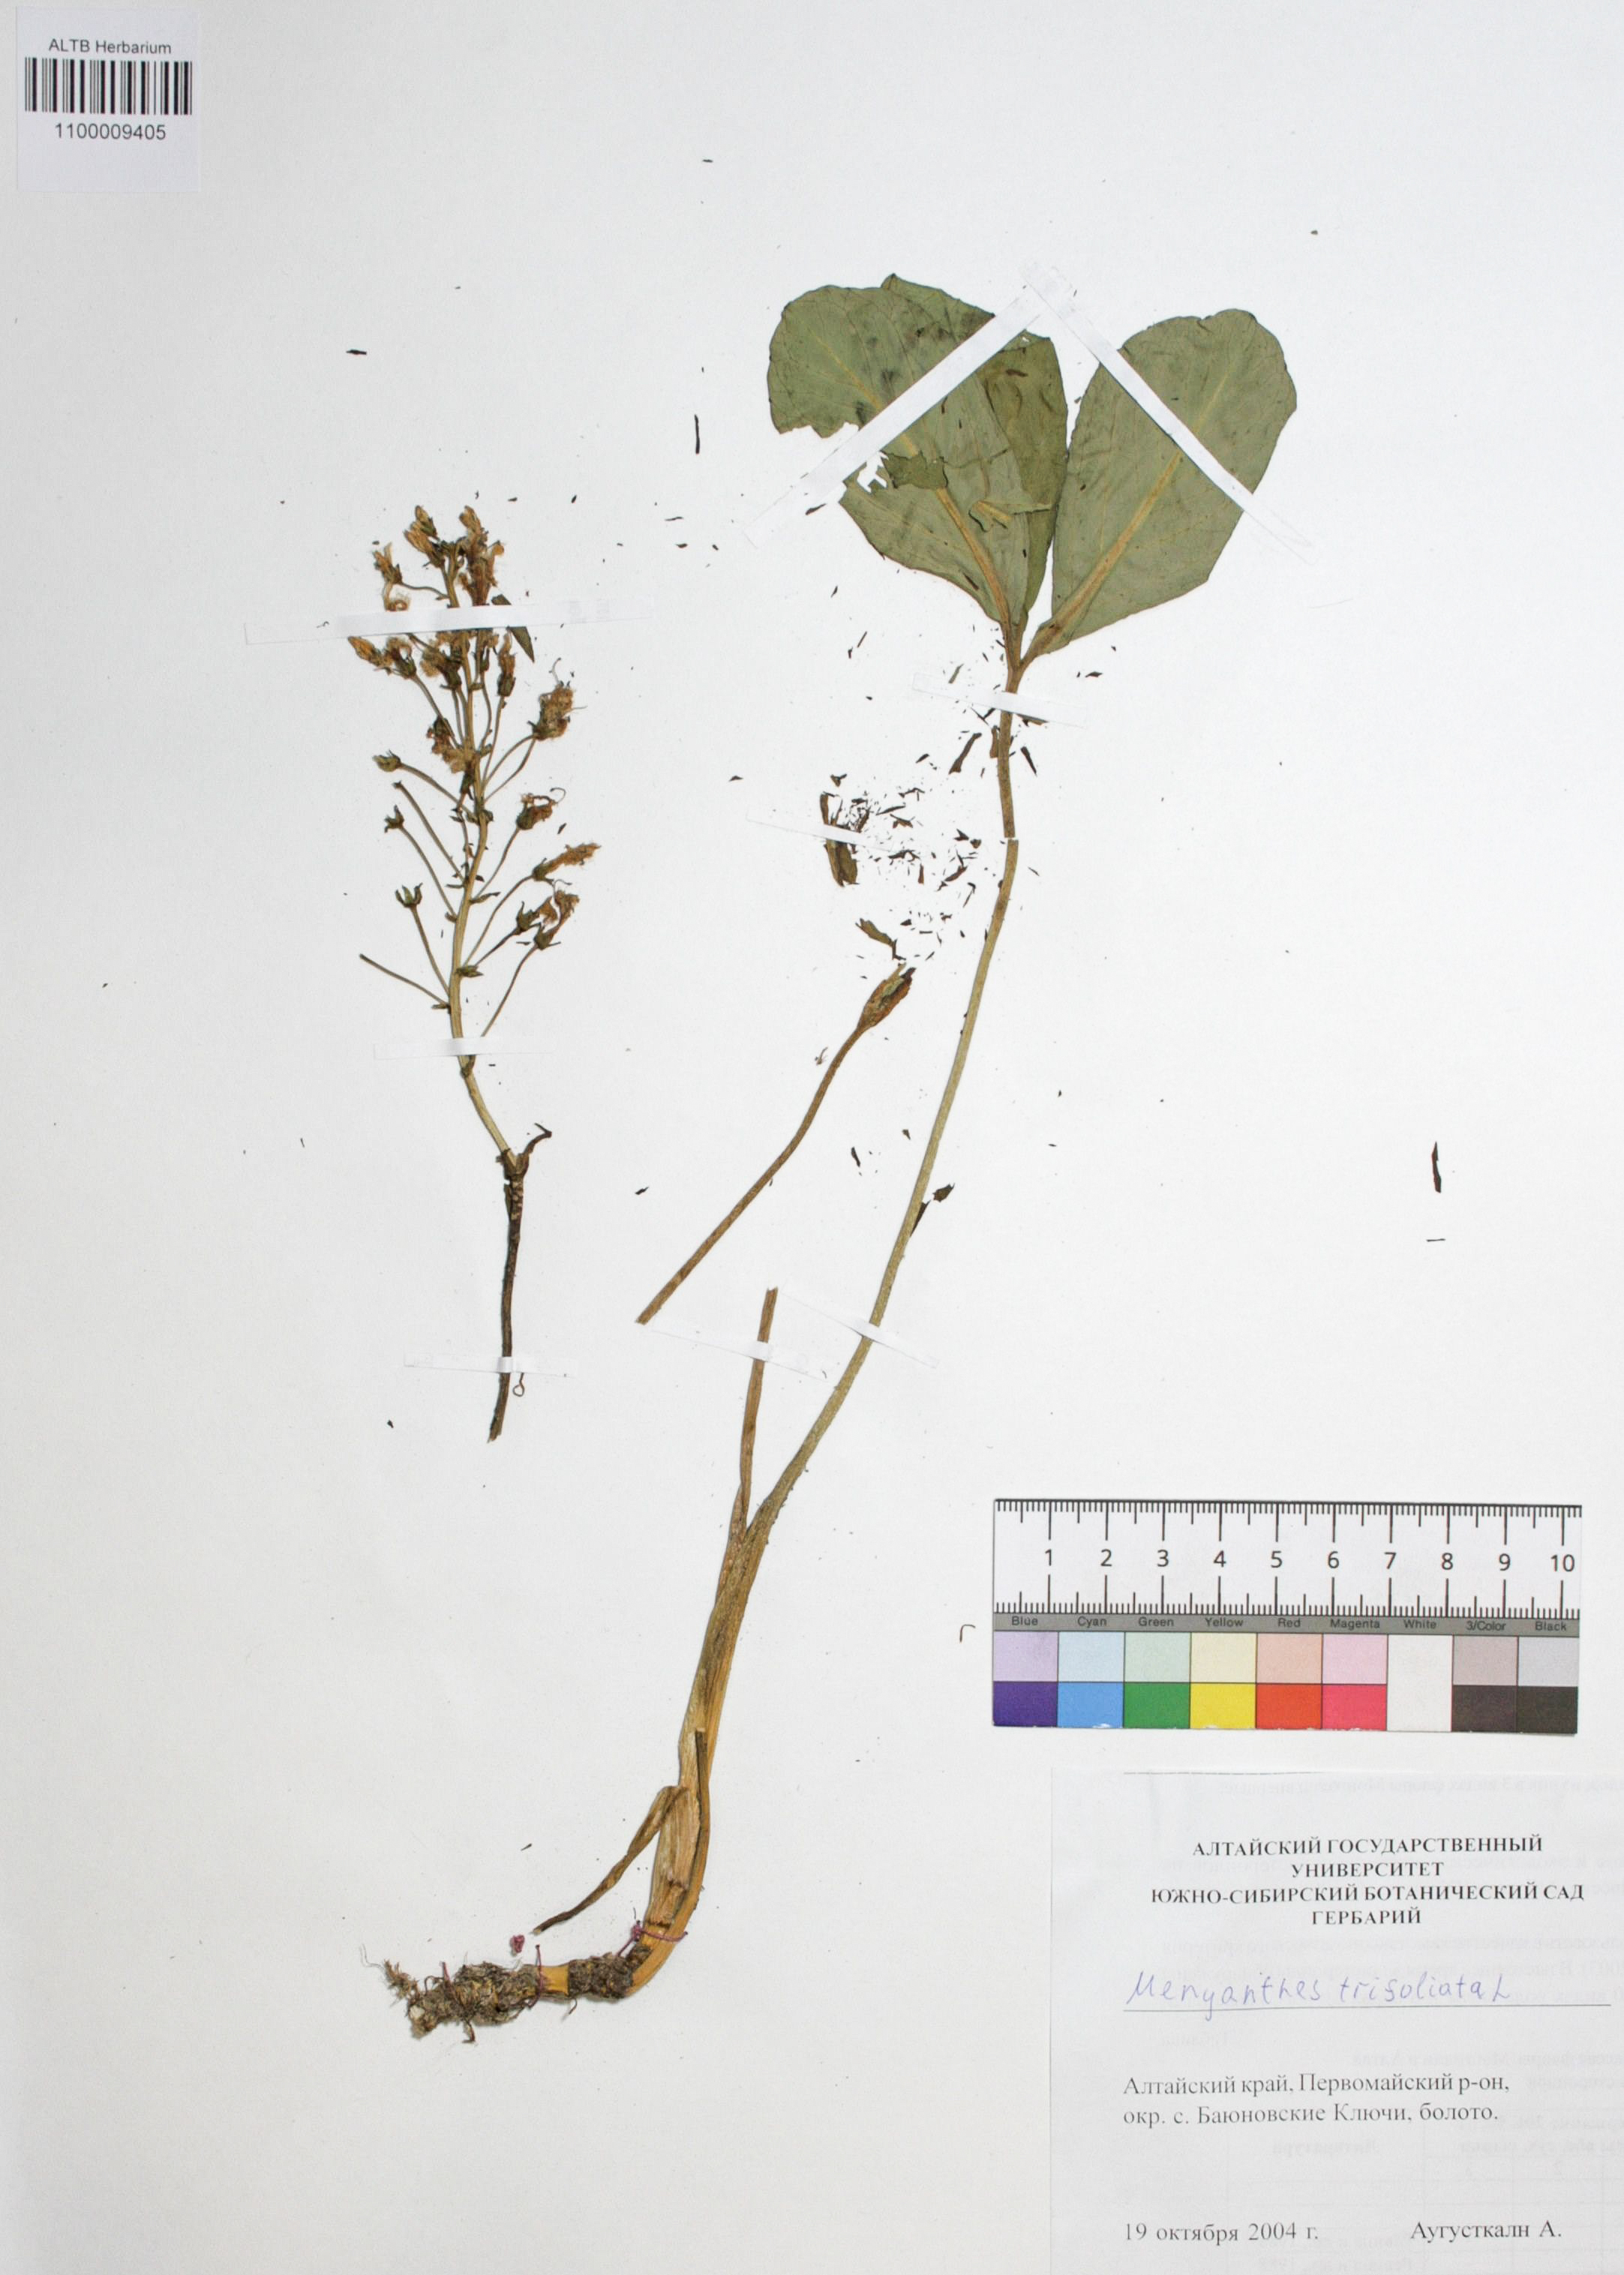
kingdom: Plantae
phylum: Tracheophyta
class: Magnoliopsida
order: Asterales
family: Menyanthaceae
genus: Menyanthes
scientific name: Menyanthes trifoliata
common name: Bogbean
